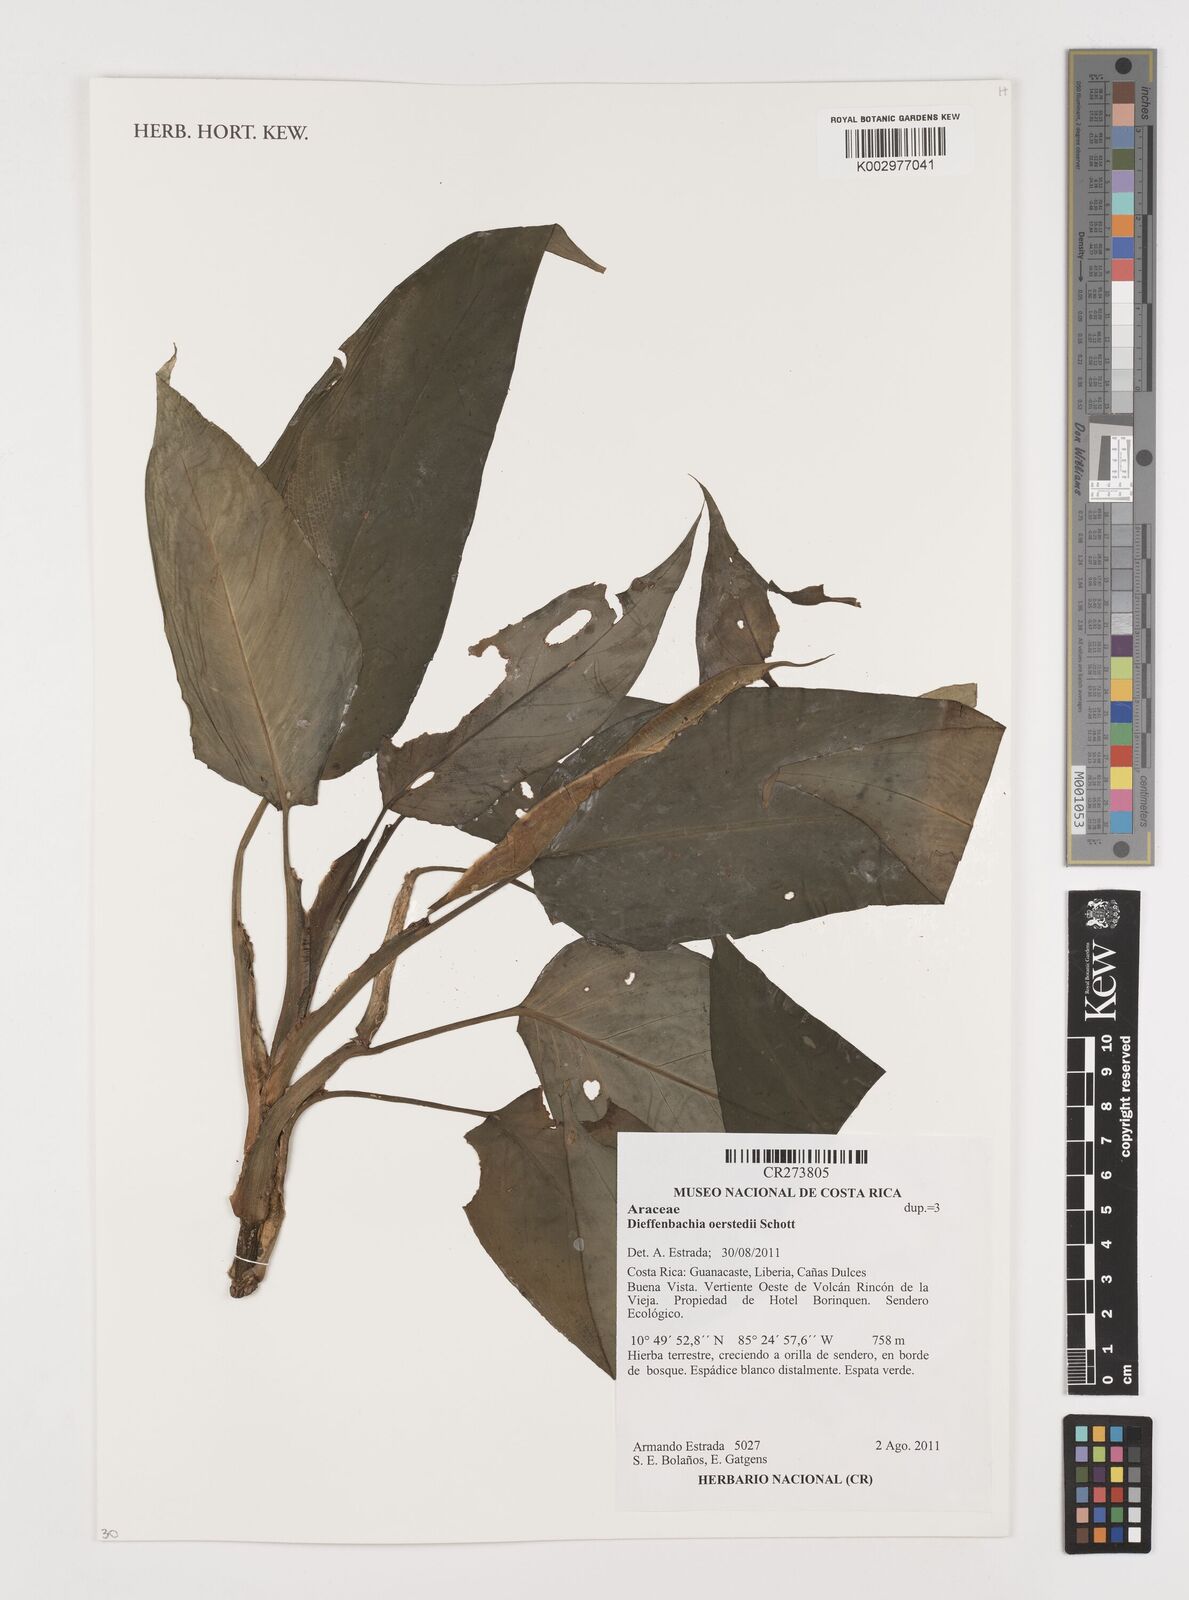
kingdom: Plantae
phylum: Tracheophyta
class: Liliopsida
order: Alismatales
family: Araceae
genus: Dieffenbachia
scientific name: Dieffenbachia oerstedii
